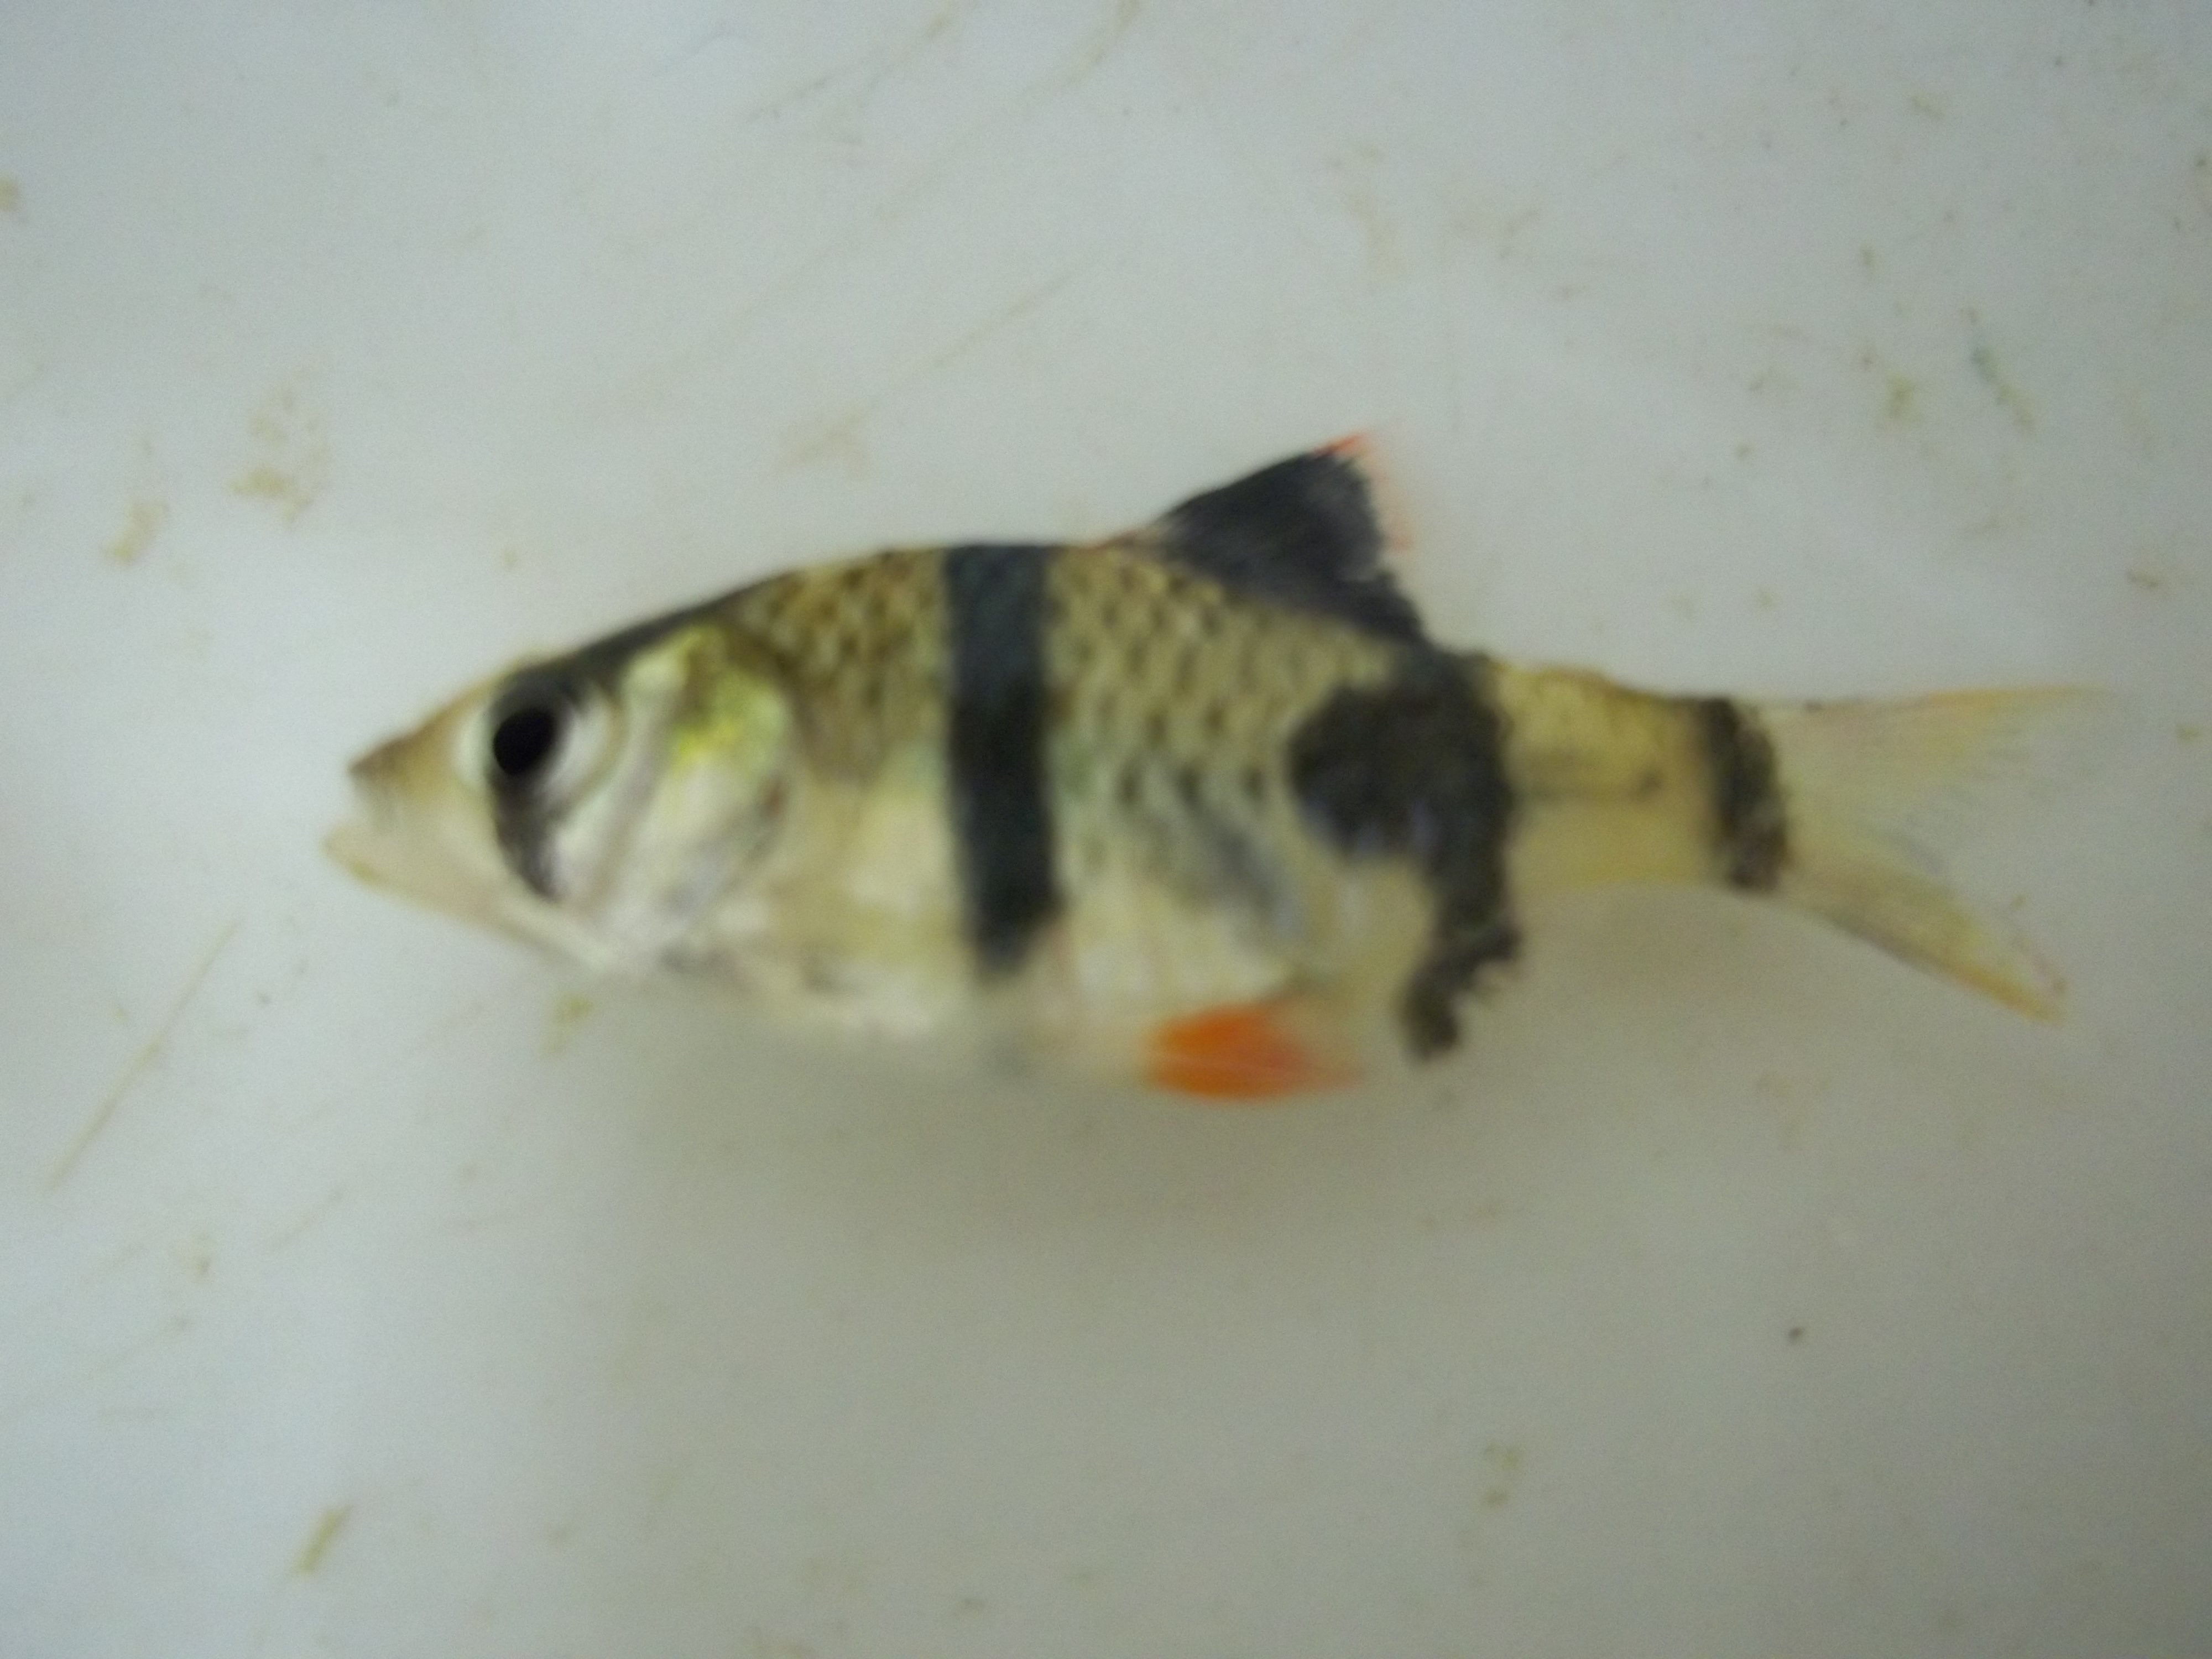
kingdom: Animalia
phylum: Chordata
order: Cypriniformes
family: Cyprinidae
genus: Puntigrus
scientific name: Puntigrus tetrazona
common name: Tiger barb
